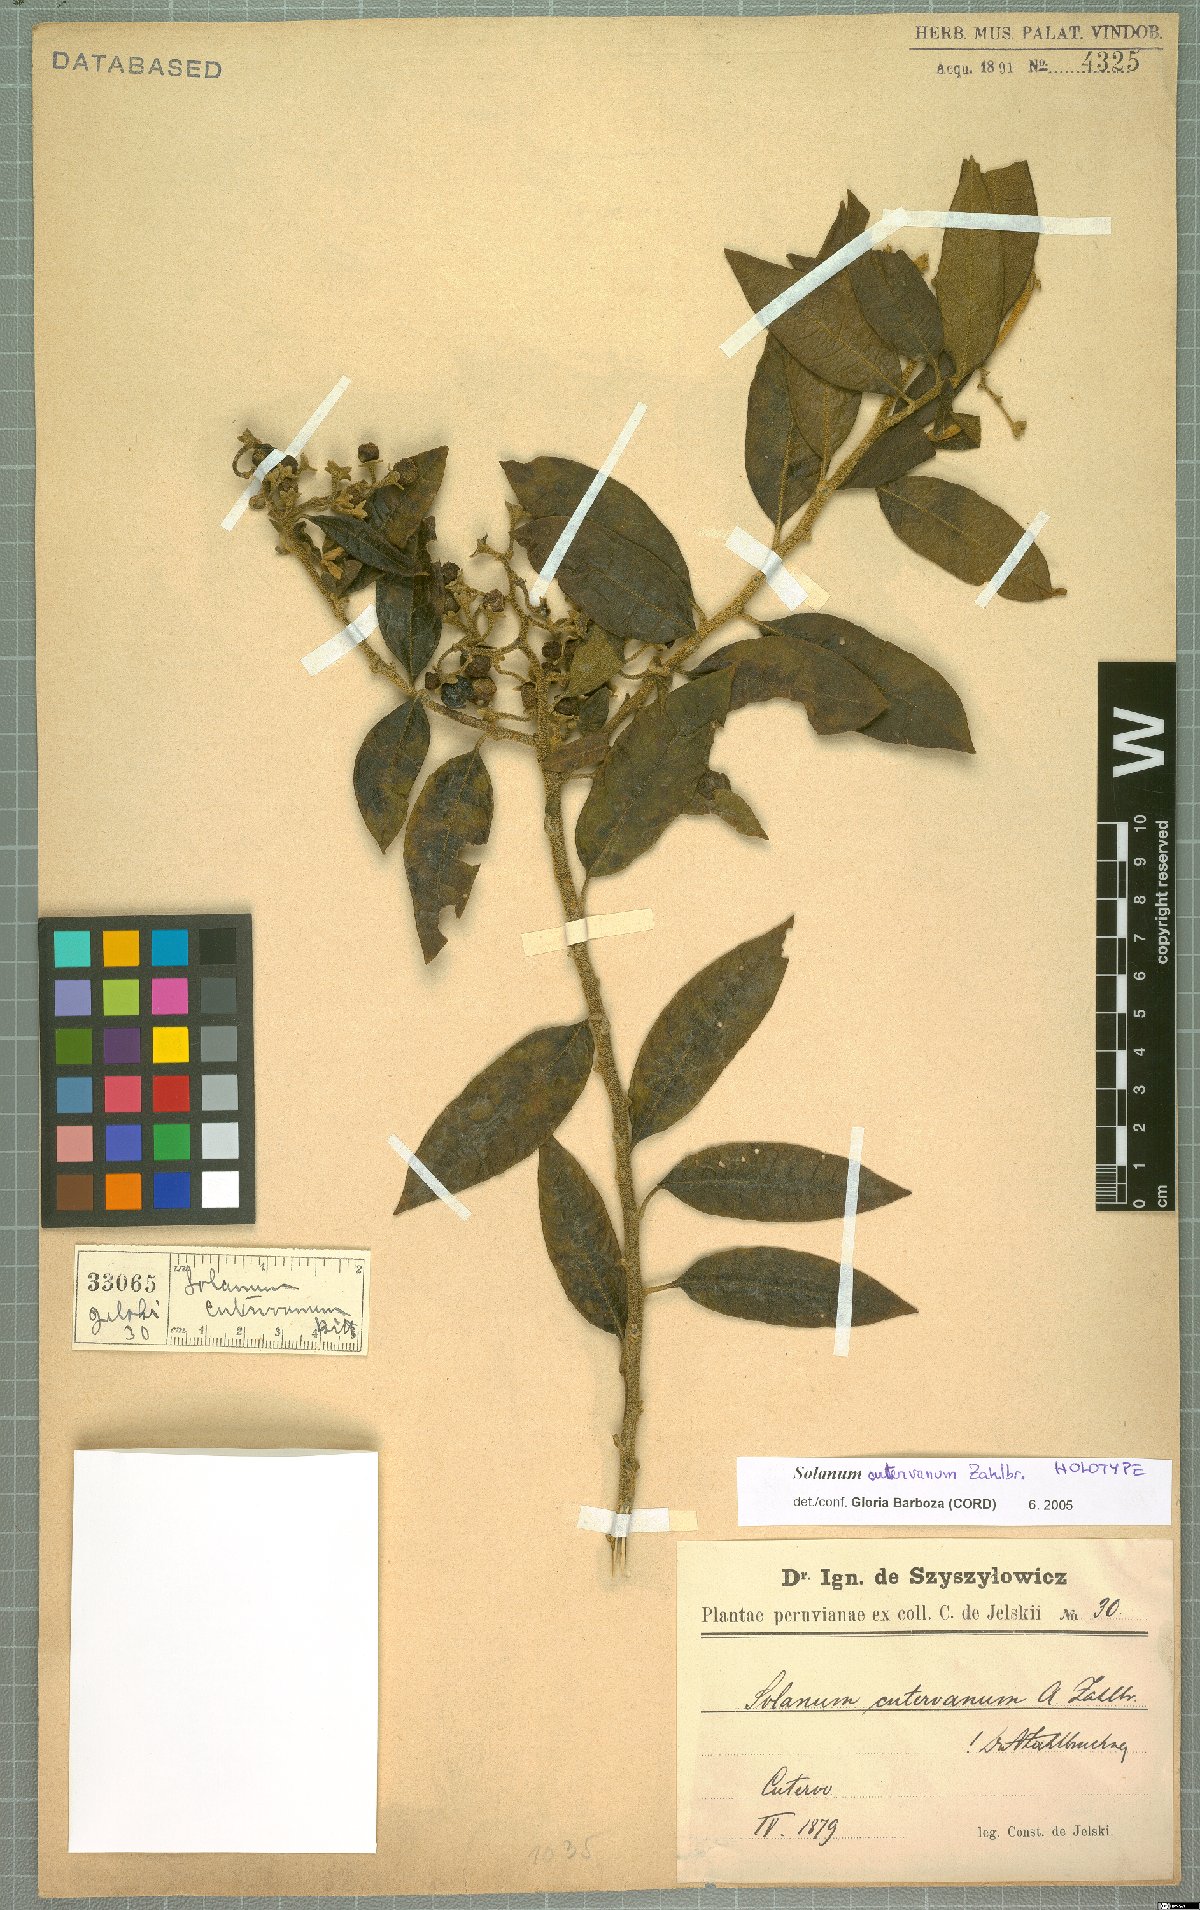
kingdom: Plantae
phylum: Tracheophyta
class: Magnoliopsida
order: Solanales
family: Solanaceae
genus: Solanum
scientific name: Solanum cutervanum
